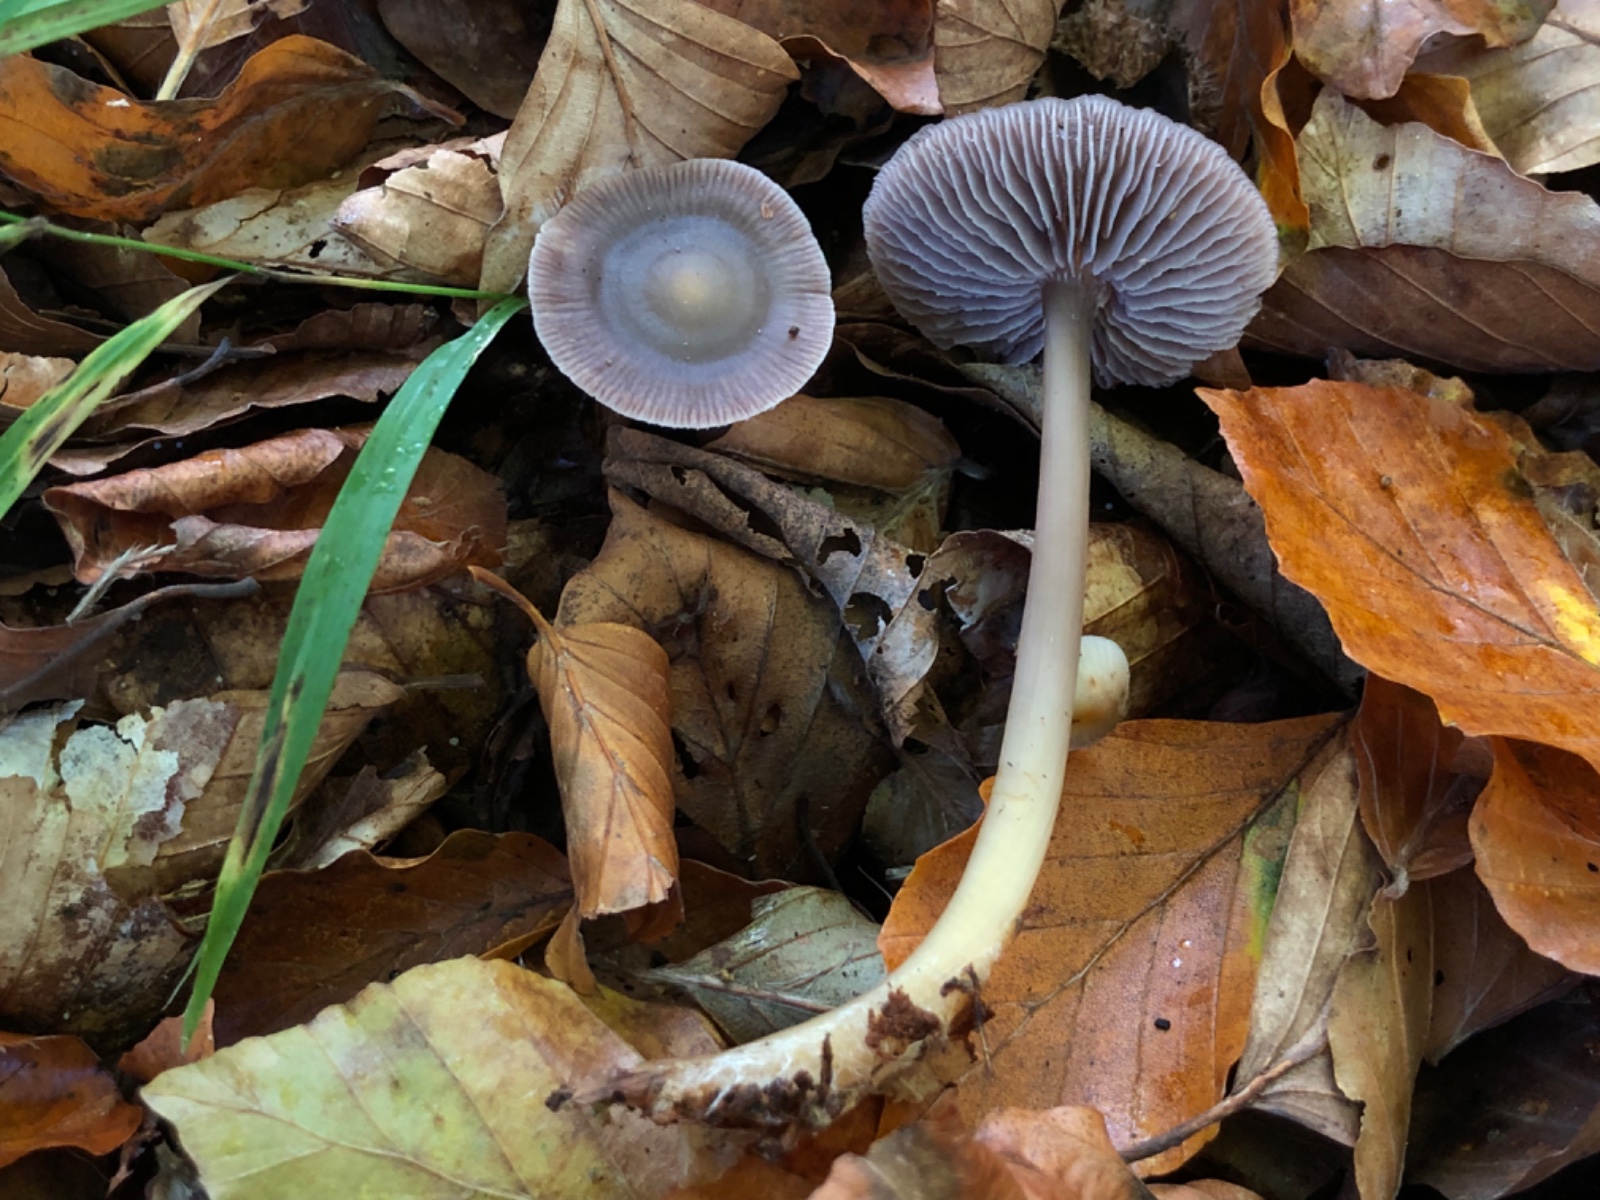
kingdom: Fungi
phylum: Basidiomycota
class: Agaricomycetes
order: Agaricales
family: Mycenaceae
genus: Prunulus
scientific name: Prunulus diosmus
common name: tobaks-huesvamp
